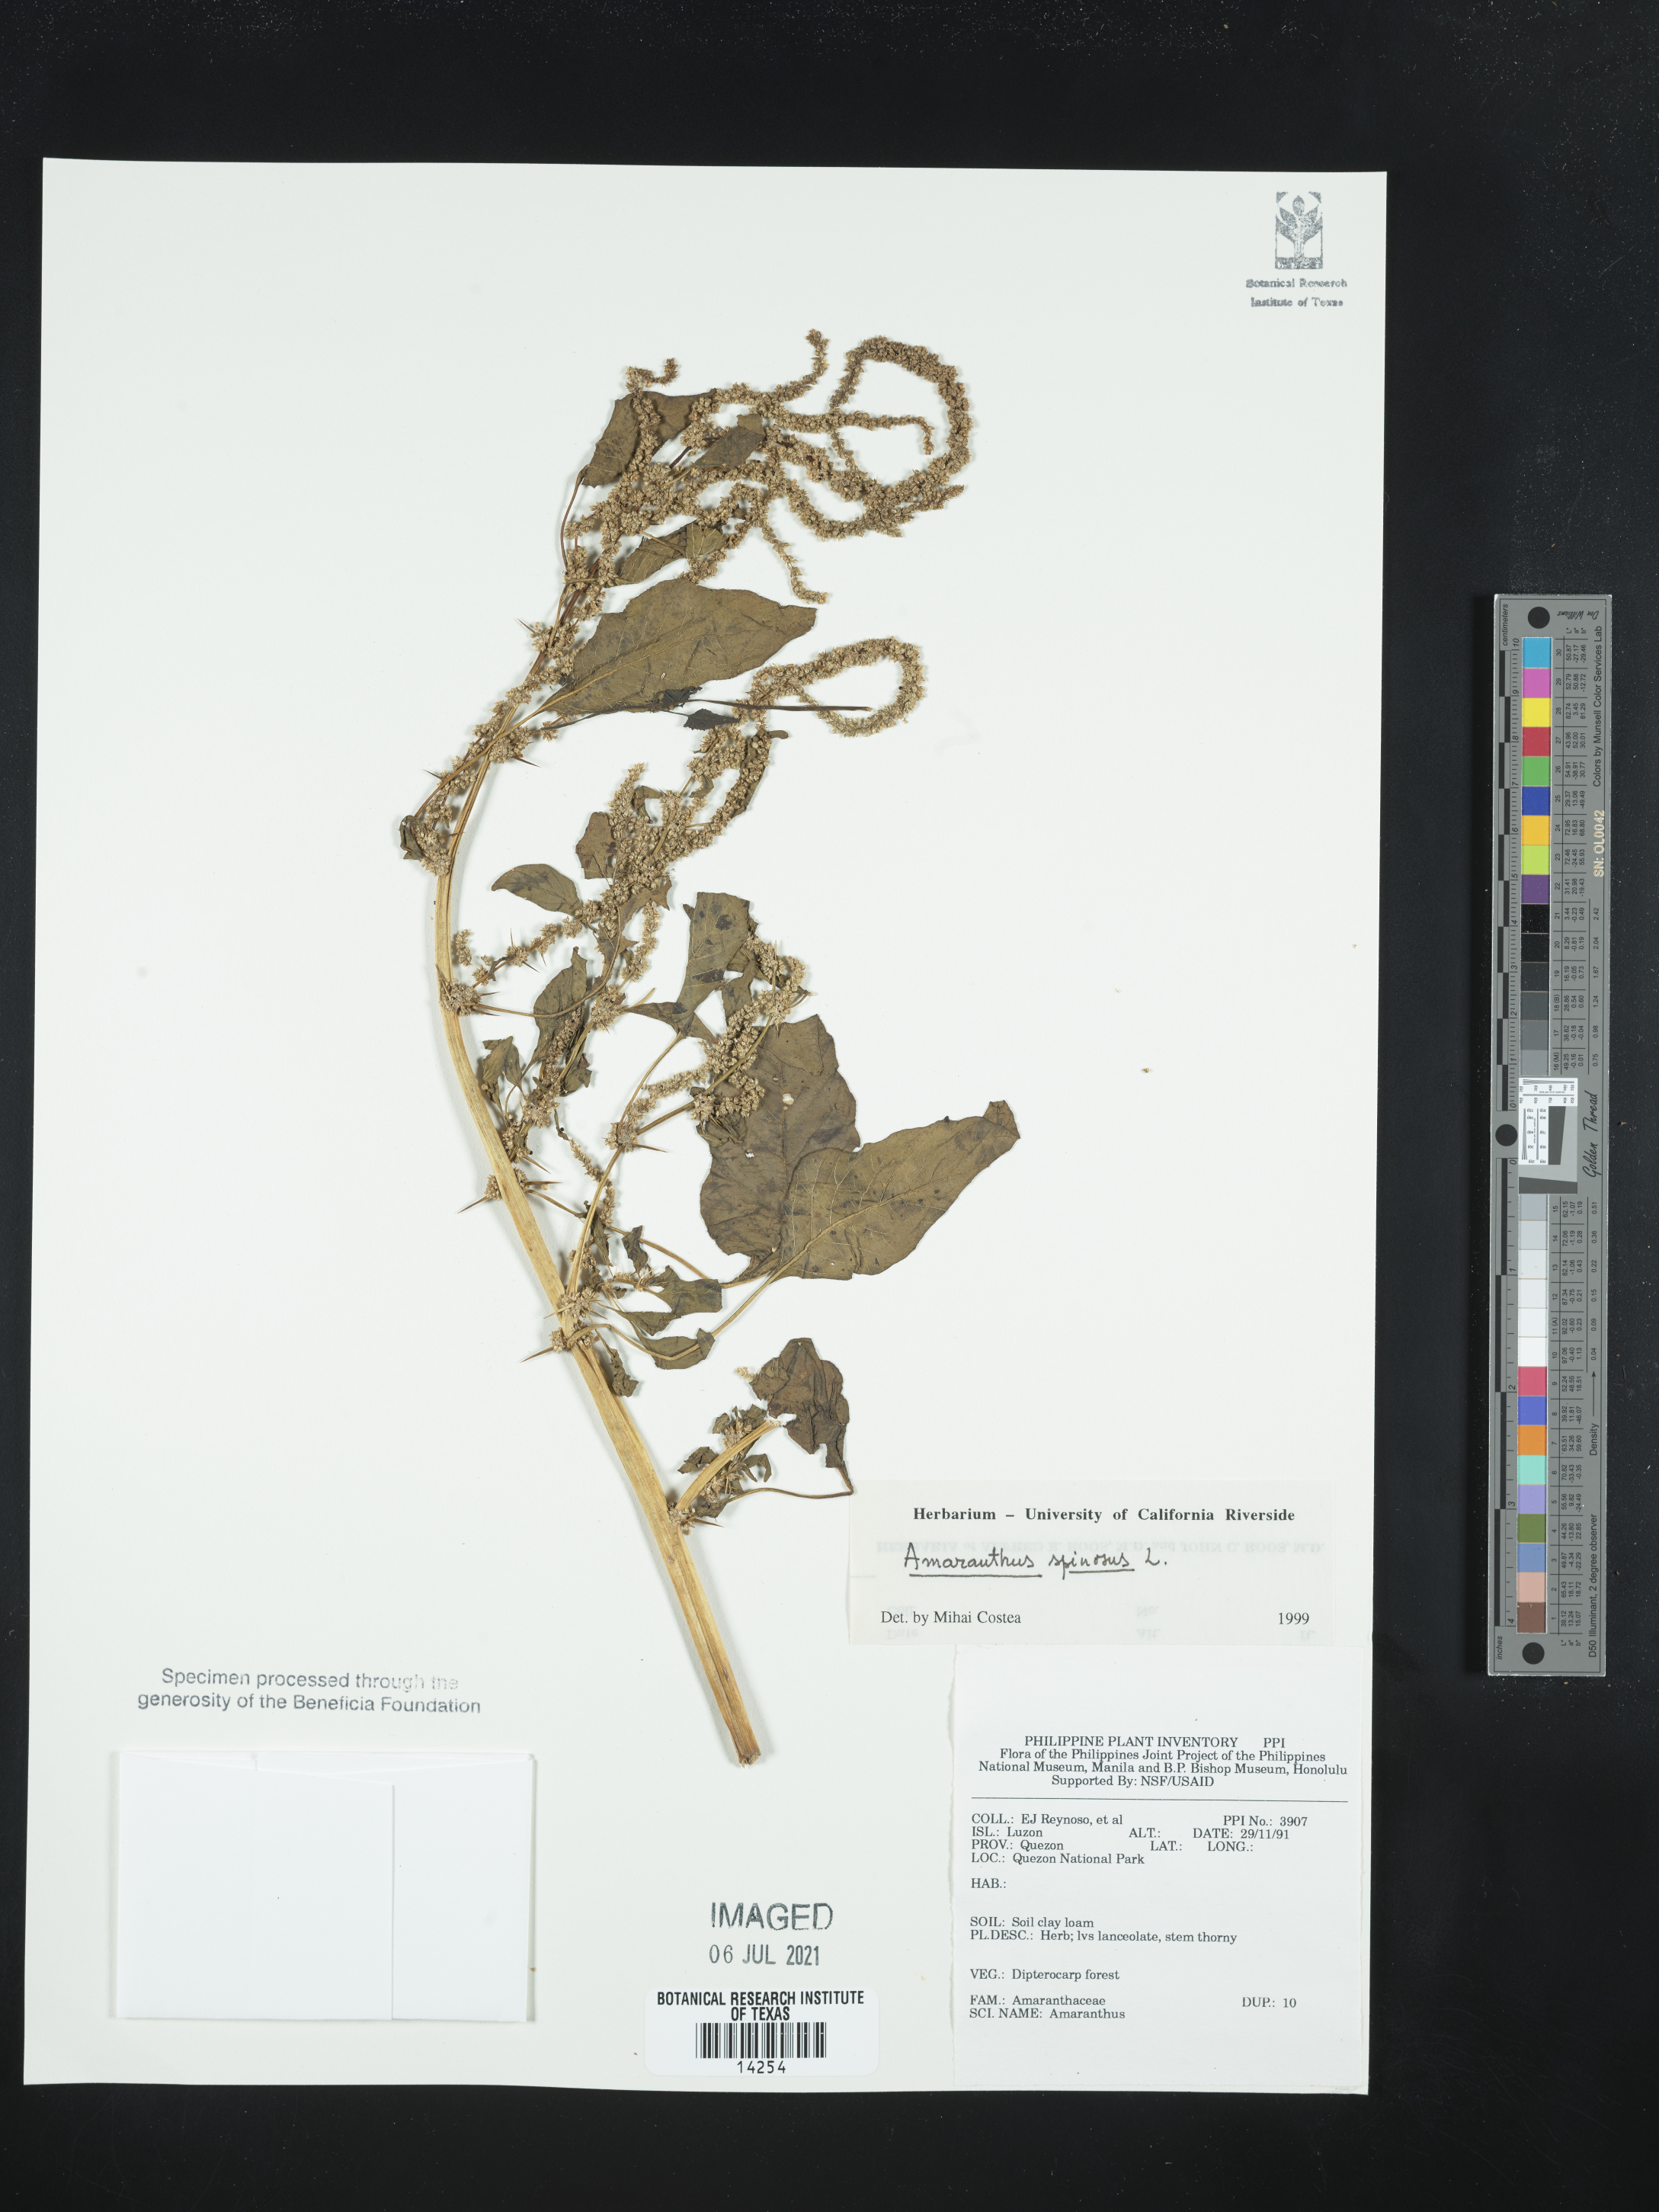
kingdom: Plantae
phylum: Tracheophyta
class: Magnoliopsida
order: Caryophyllales
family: Amaranthaceae
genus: Amaranthus
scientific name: Amaranthus spinosus
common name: Spiny amaranth
